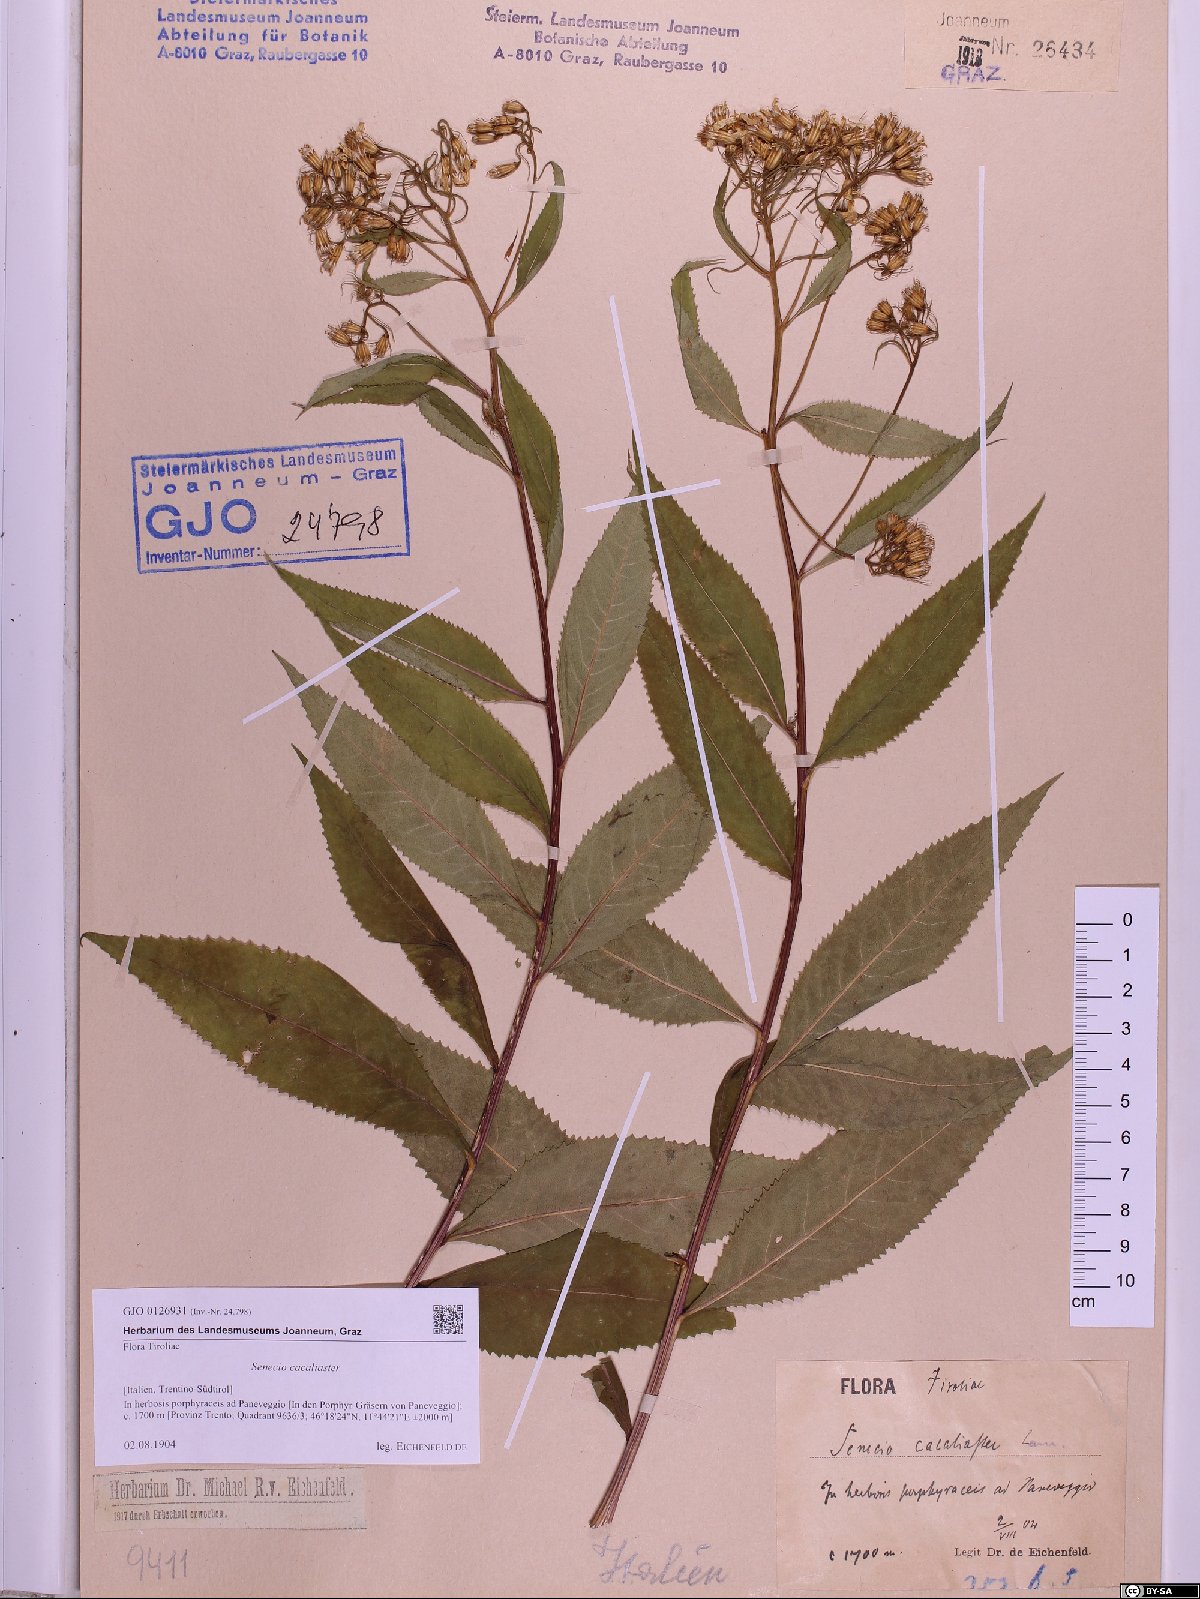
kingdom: Plantae
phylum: Tracheophyta
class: Magnoliopsida
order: Asterales
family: Asteraceae
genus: Senecio
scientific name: Senecio cacaliaster
